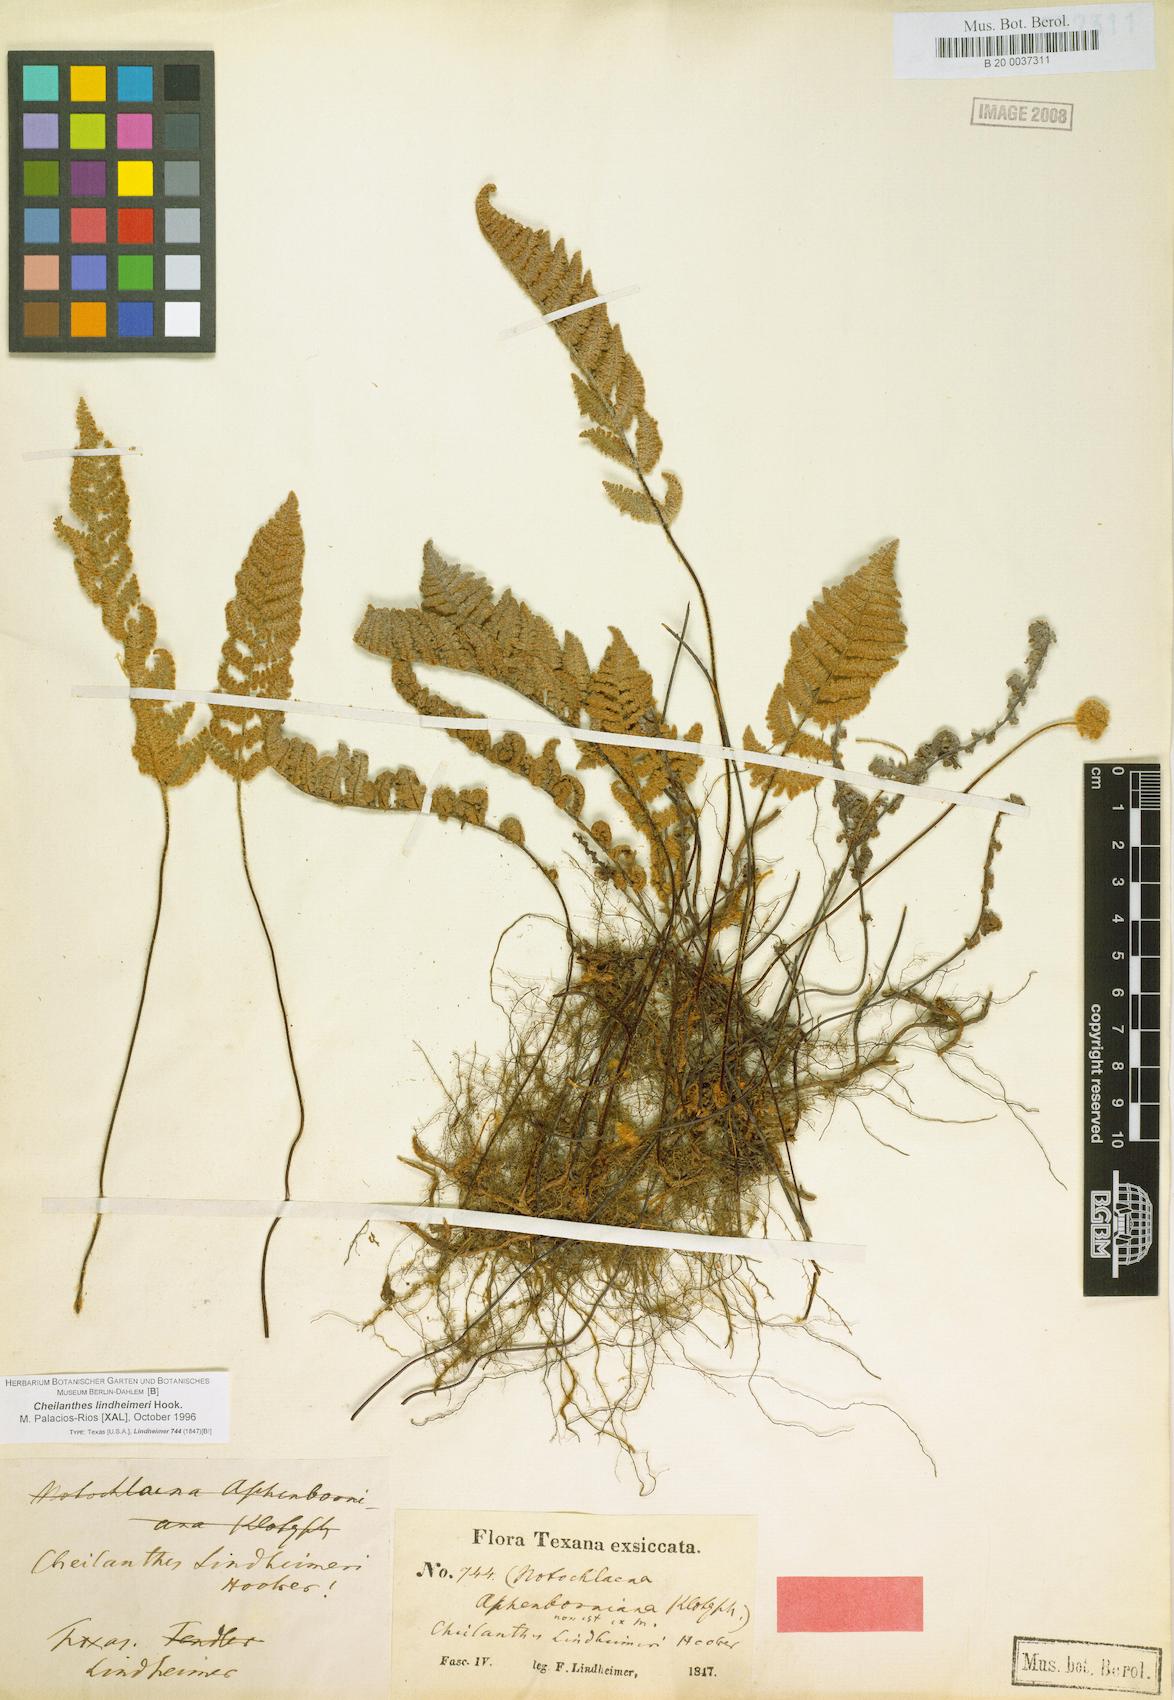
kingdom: Plantae
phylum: Tracheophyta
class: Polypodiopsida
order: Polypodiales
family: Pteridaceae
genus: Myriopteris
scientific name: Myriopteris lindheimeri
